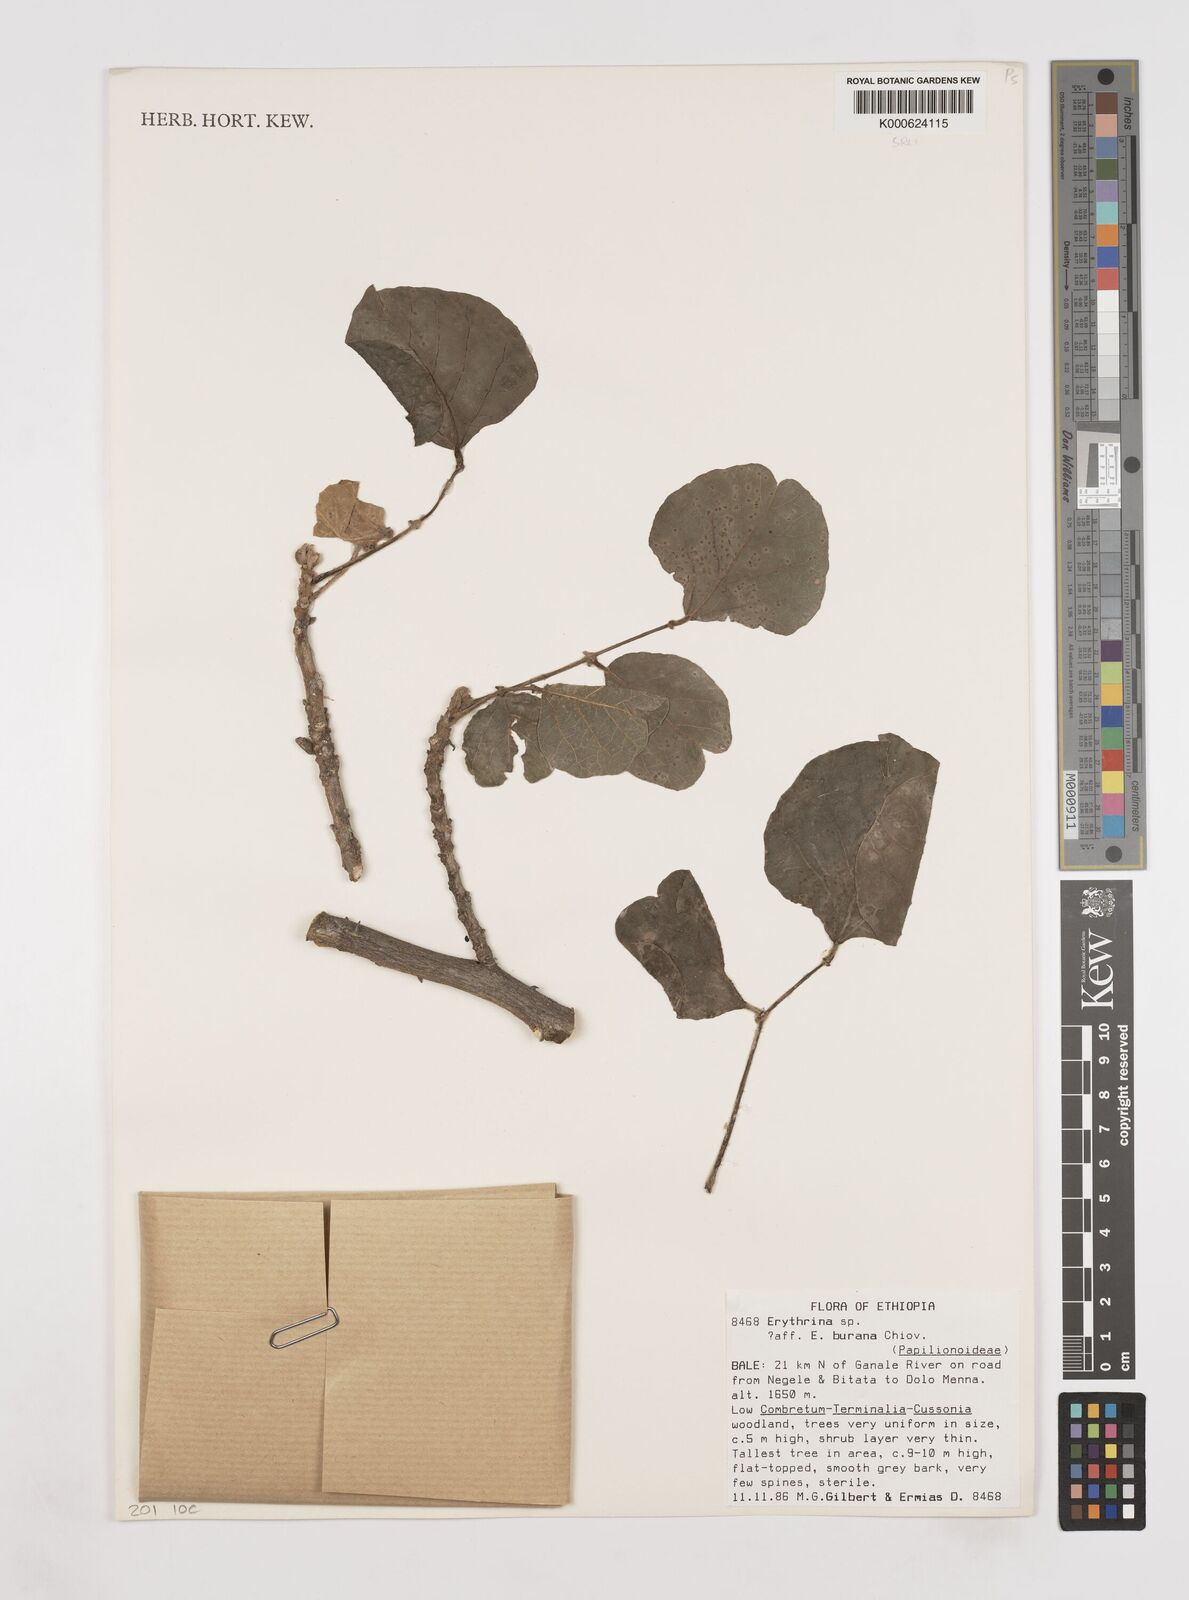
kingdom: Plantae
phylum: Tracheophyta
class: Magnoliopsida
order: Fabales
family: Fabaceae
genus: Erythrina
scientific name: Erythrina burana
